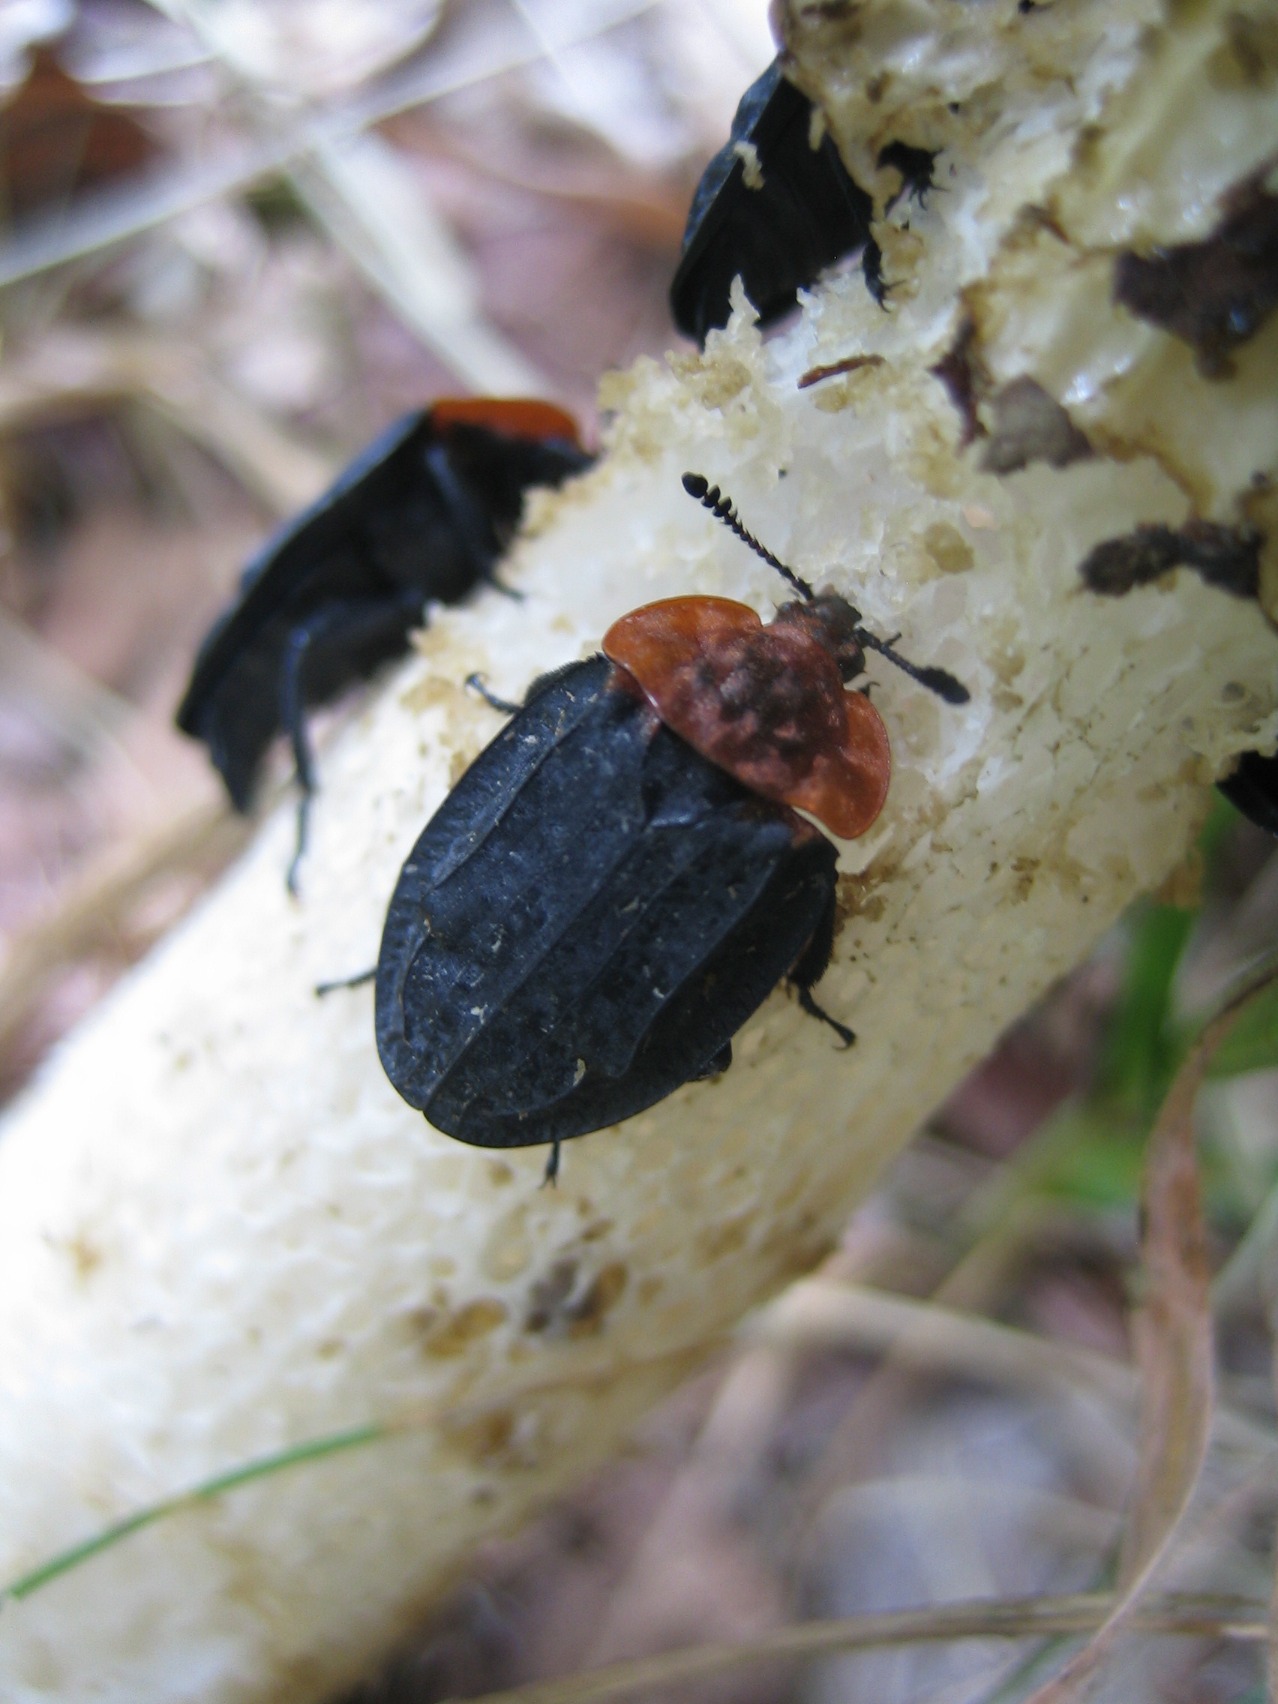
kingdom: Animalia
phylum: Arthropoda
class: Insecta
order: Coleoptera
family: Staphylinidae
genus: Oiceoptoma
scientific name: Oiceoptoma thoracicum
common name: Rødbrystet ådselbille
